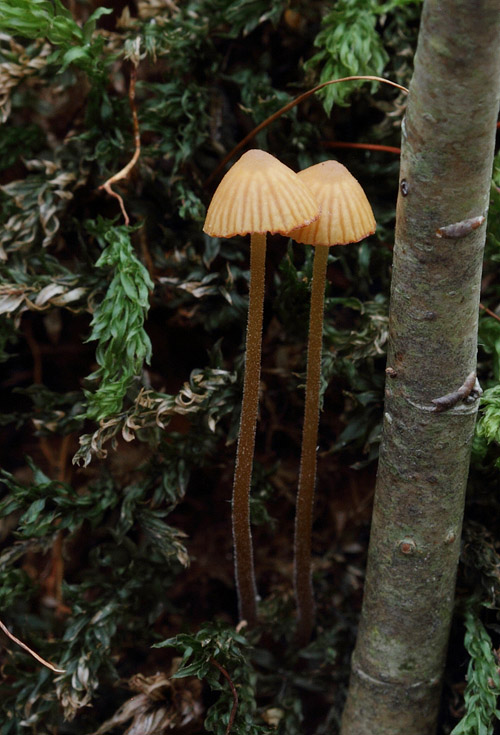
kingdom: Fungi
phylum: Basidiomycota
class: Agaricomycetes
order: Agaricales
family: Hymenogastraceae
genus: Galerina
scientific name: Galerina vittiformis
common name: Hairy leg bell
